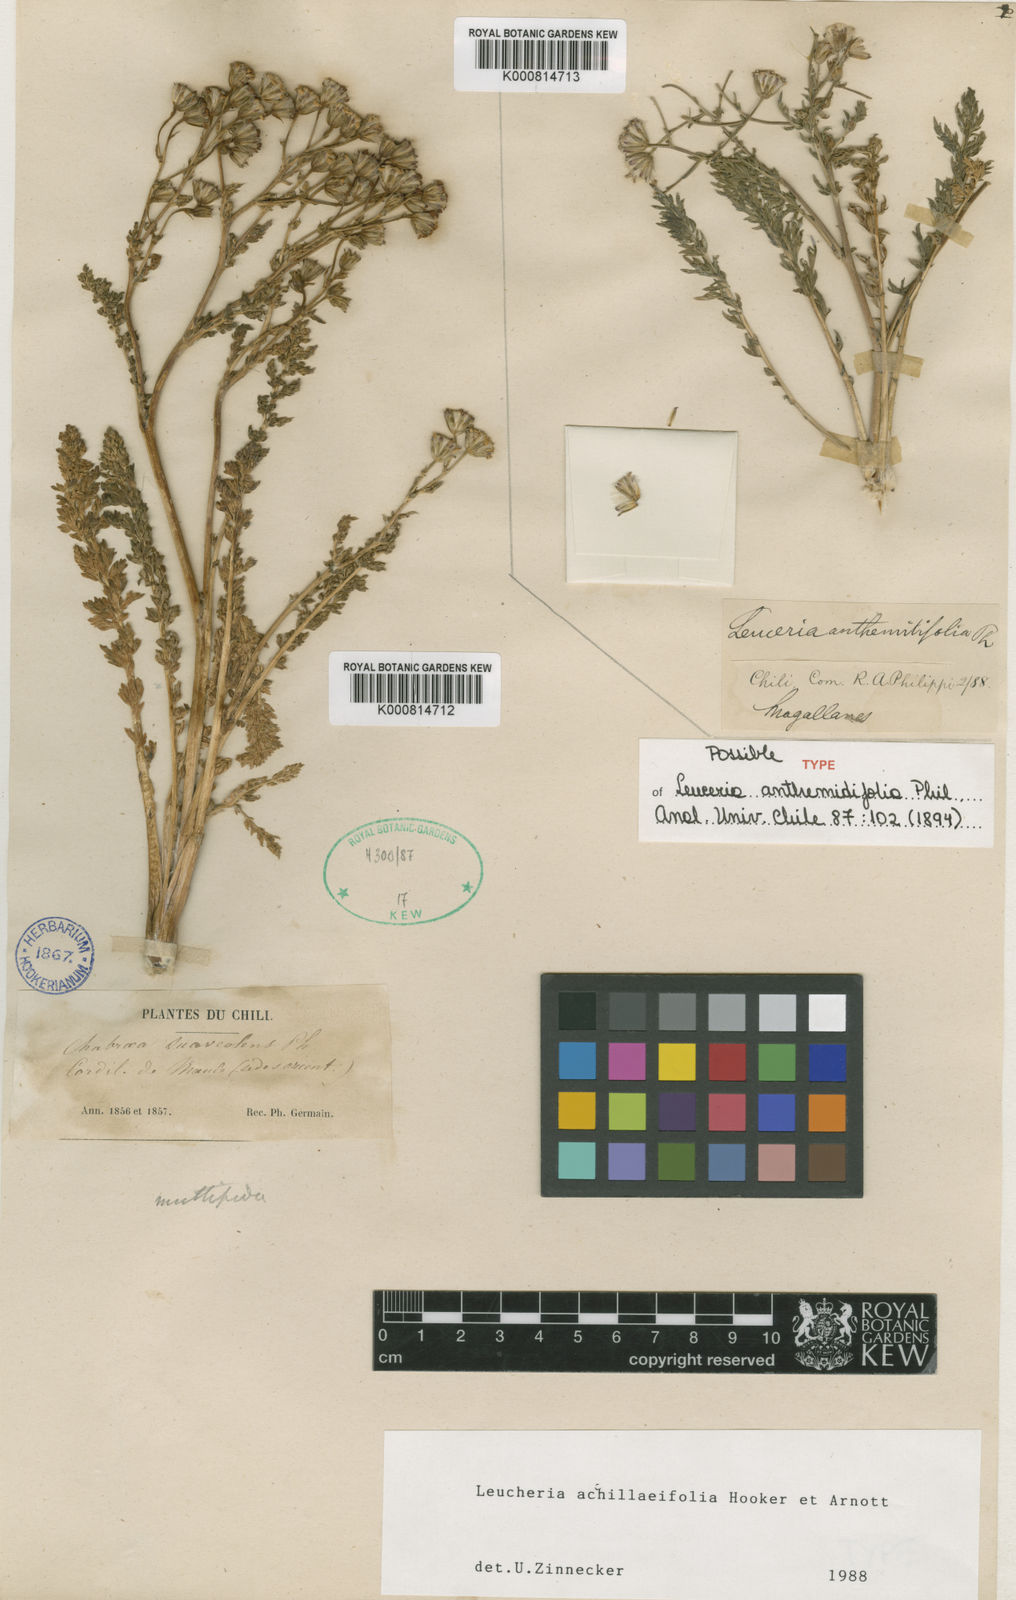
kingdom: Plantae
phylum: Tracheophyta
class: Magnoliopsida
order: Asterales
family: Asteraceae
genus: Leucheria
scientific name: Leucheria
